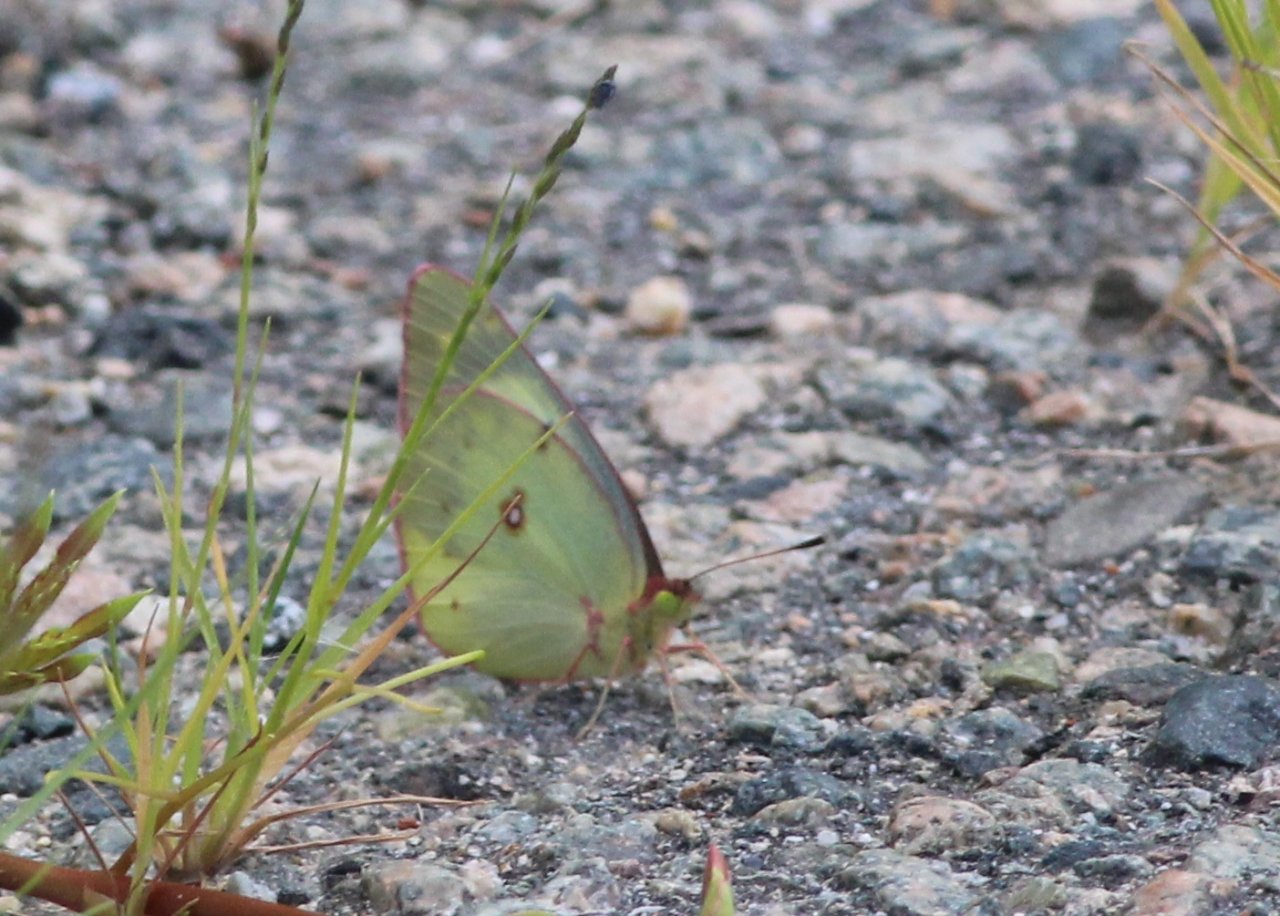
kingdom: Animalia
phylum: Arthropoda
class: Insecta
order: Lepidoptera
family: Pieridae
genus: Colias
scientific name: Colias philodice
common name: Clouded Sulphur
